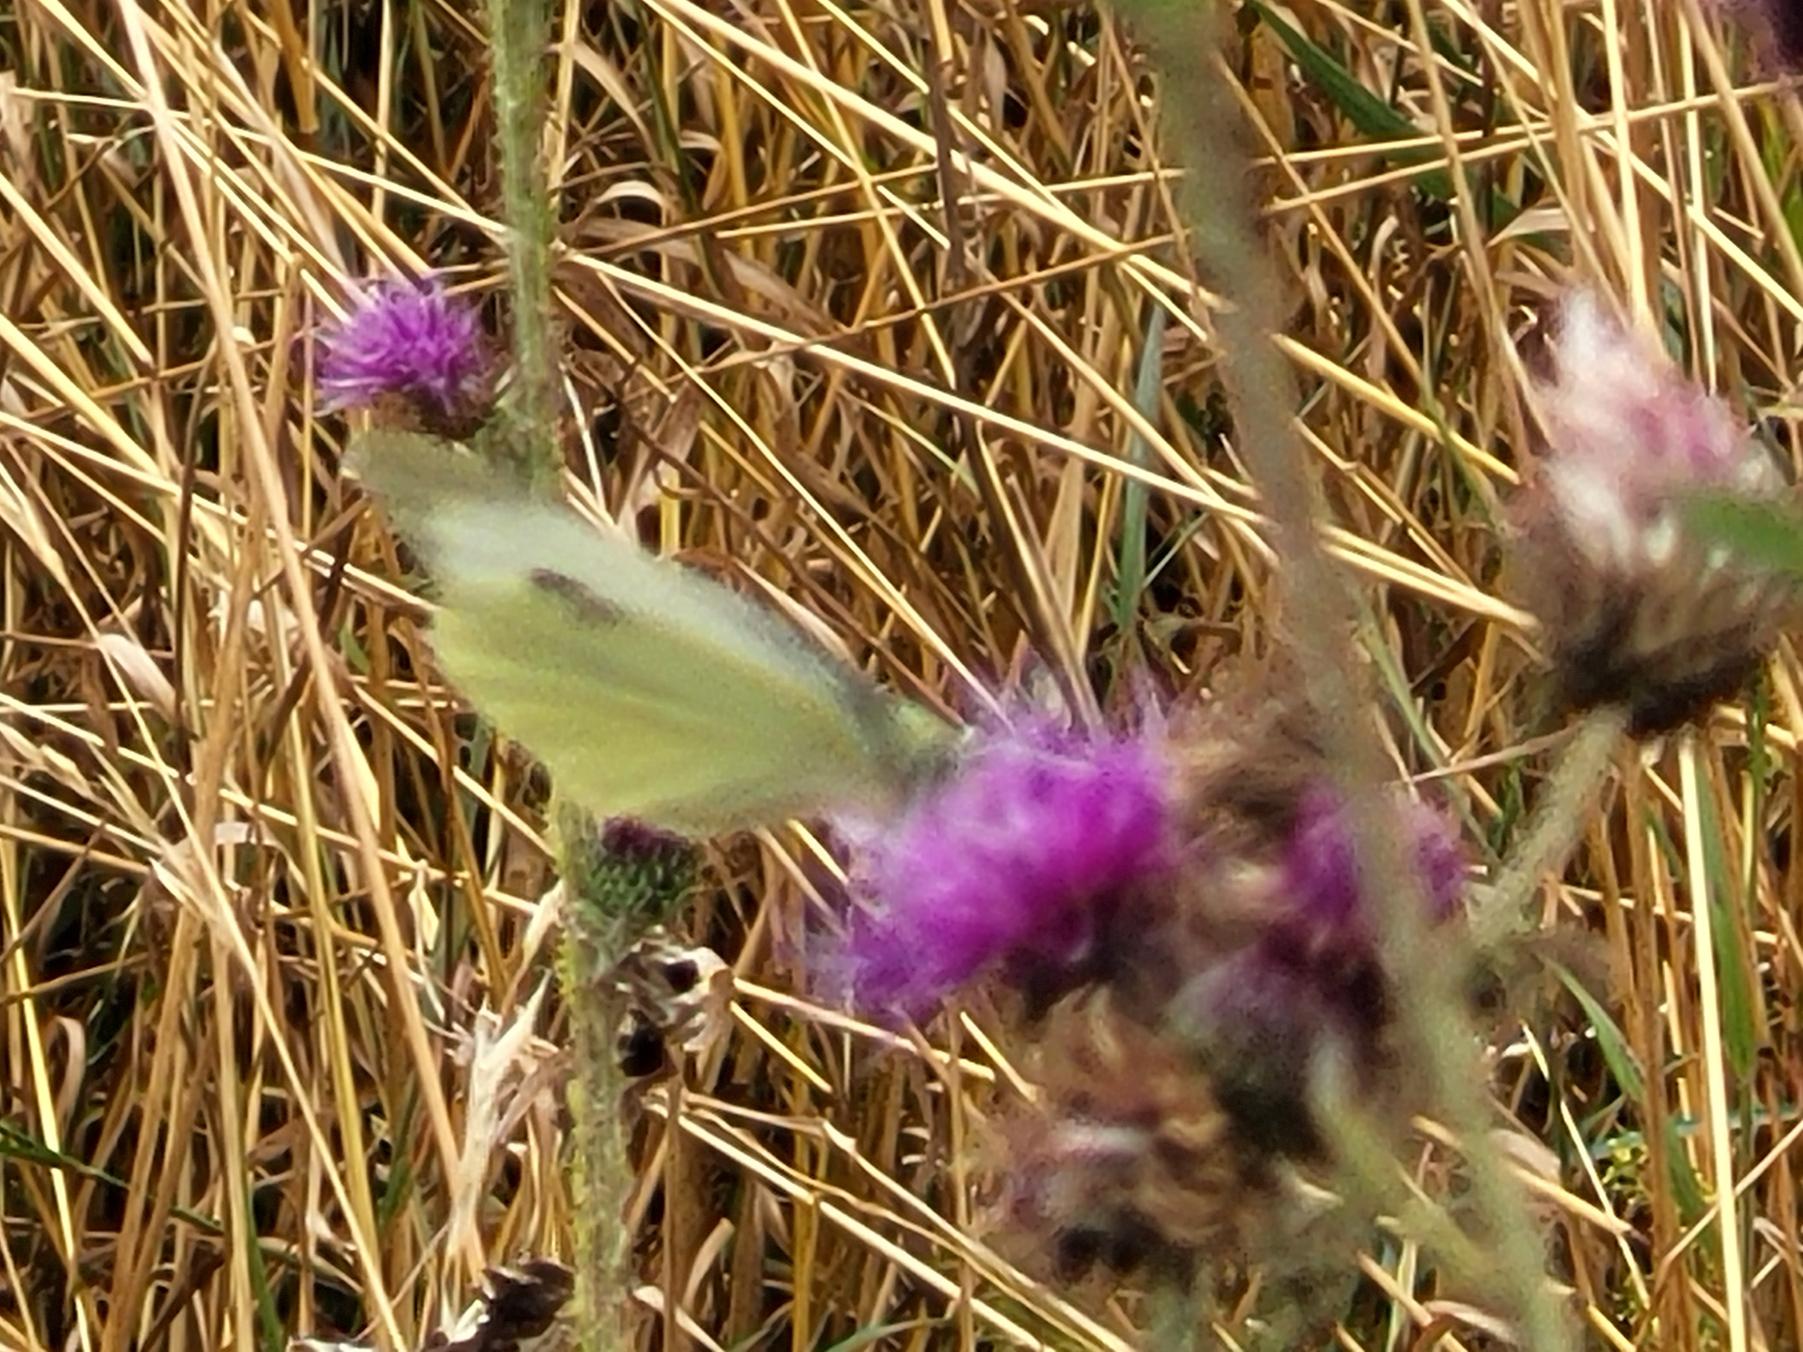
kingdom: Animalia
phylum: Arthropoda
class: Insecta
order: Lepidoptera
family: Pieridae
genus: Pieris
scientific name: Pieris brassicae
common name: Stor kålsommerfugl
